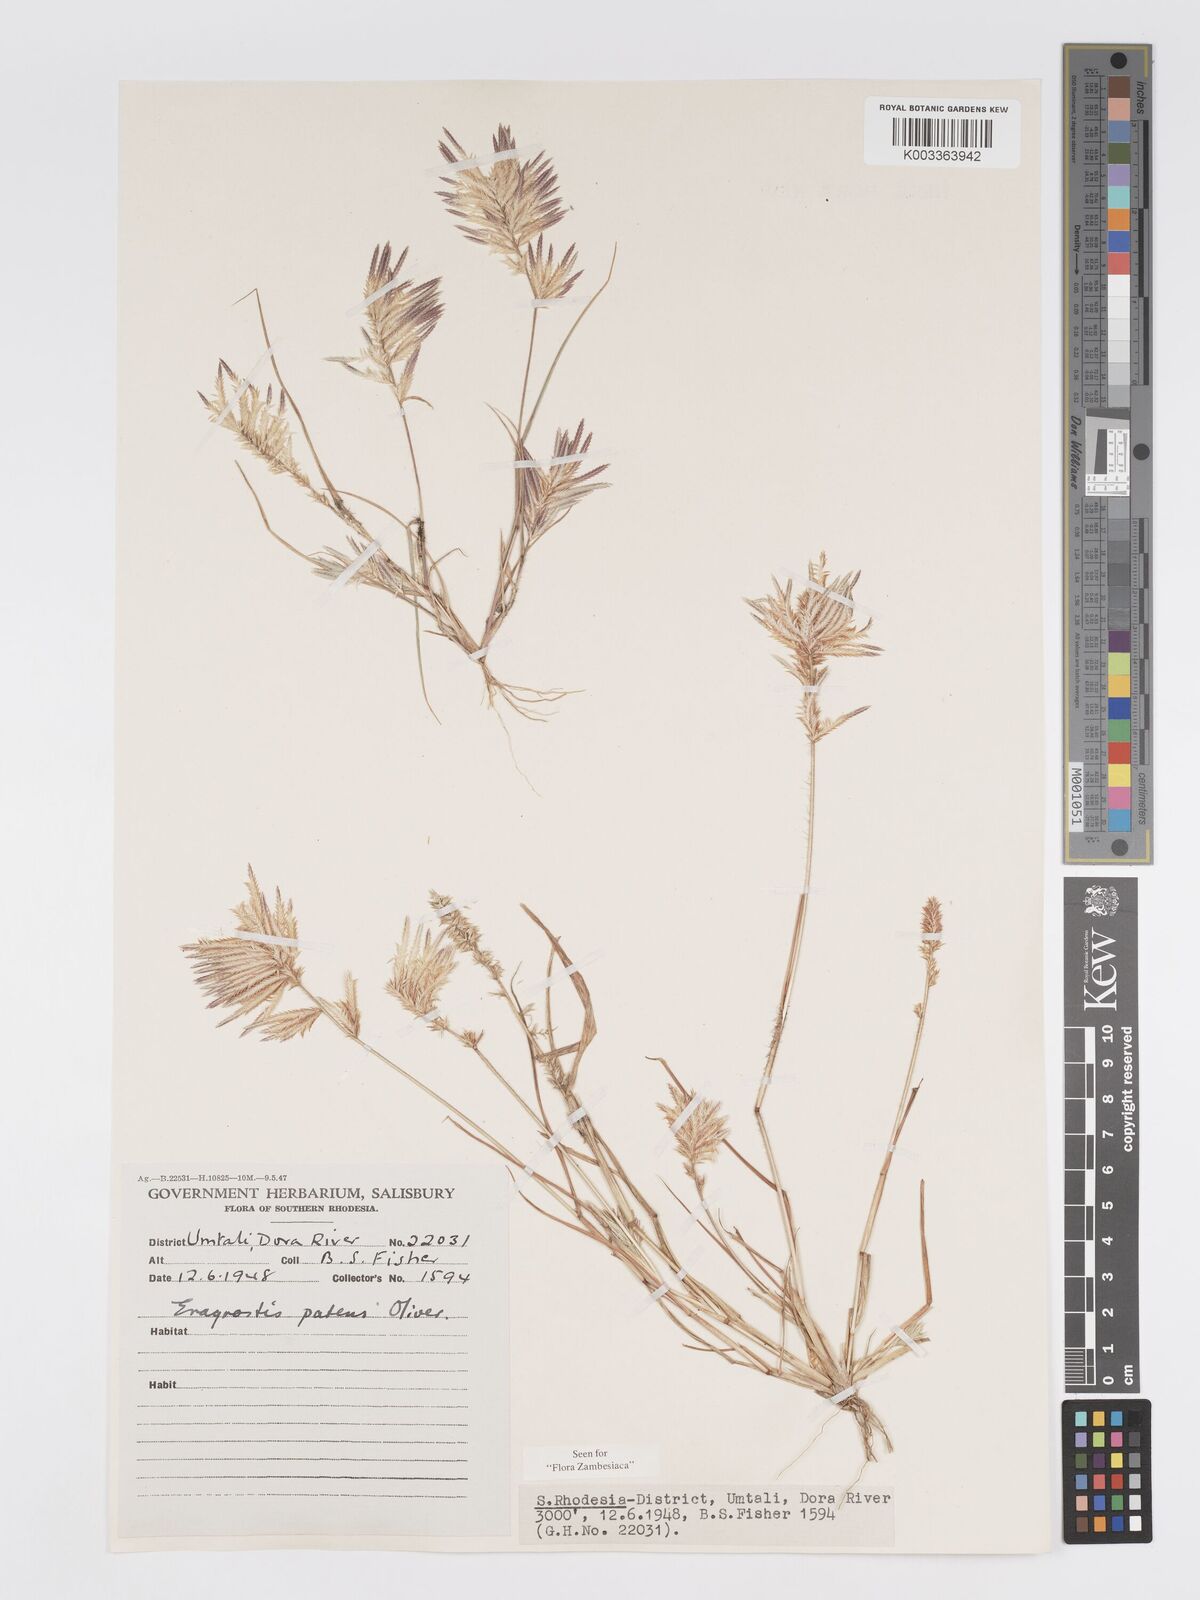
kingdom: Plantae
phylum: Tracheophyta
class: Liliopsida
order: Poales
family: Poaceae
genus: Eragrostis
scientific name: Eragrostis patens
